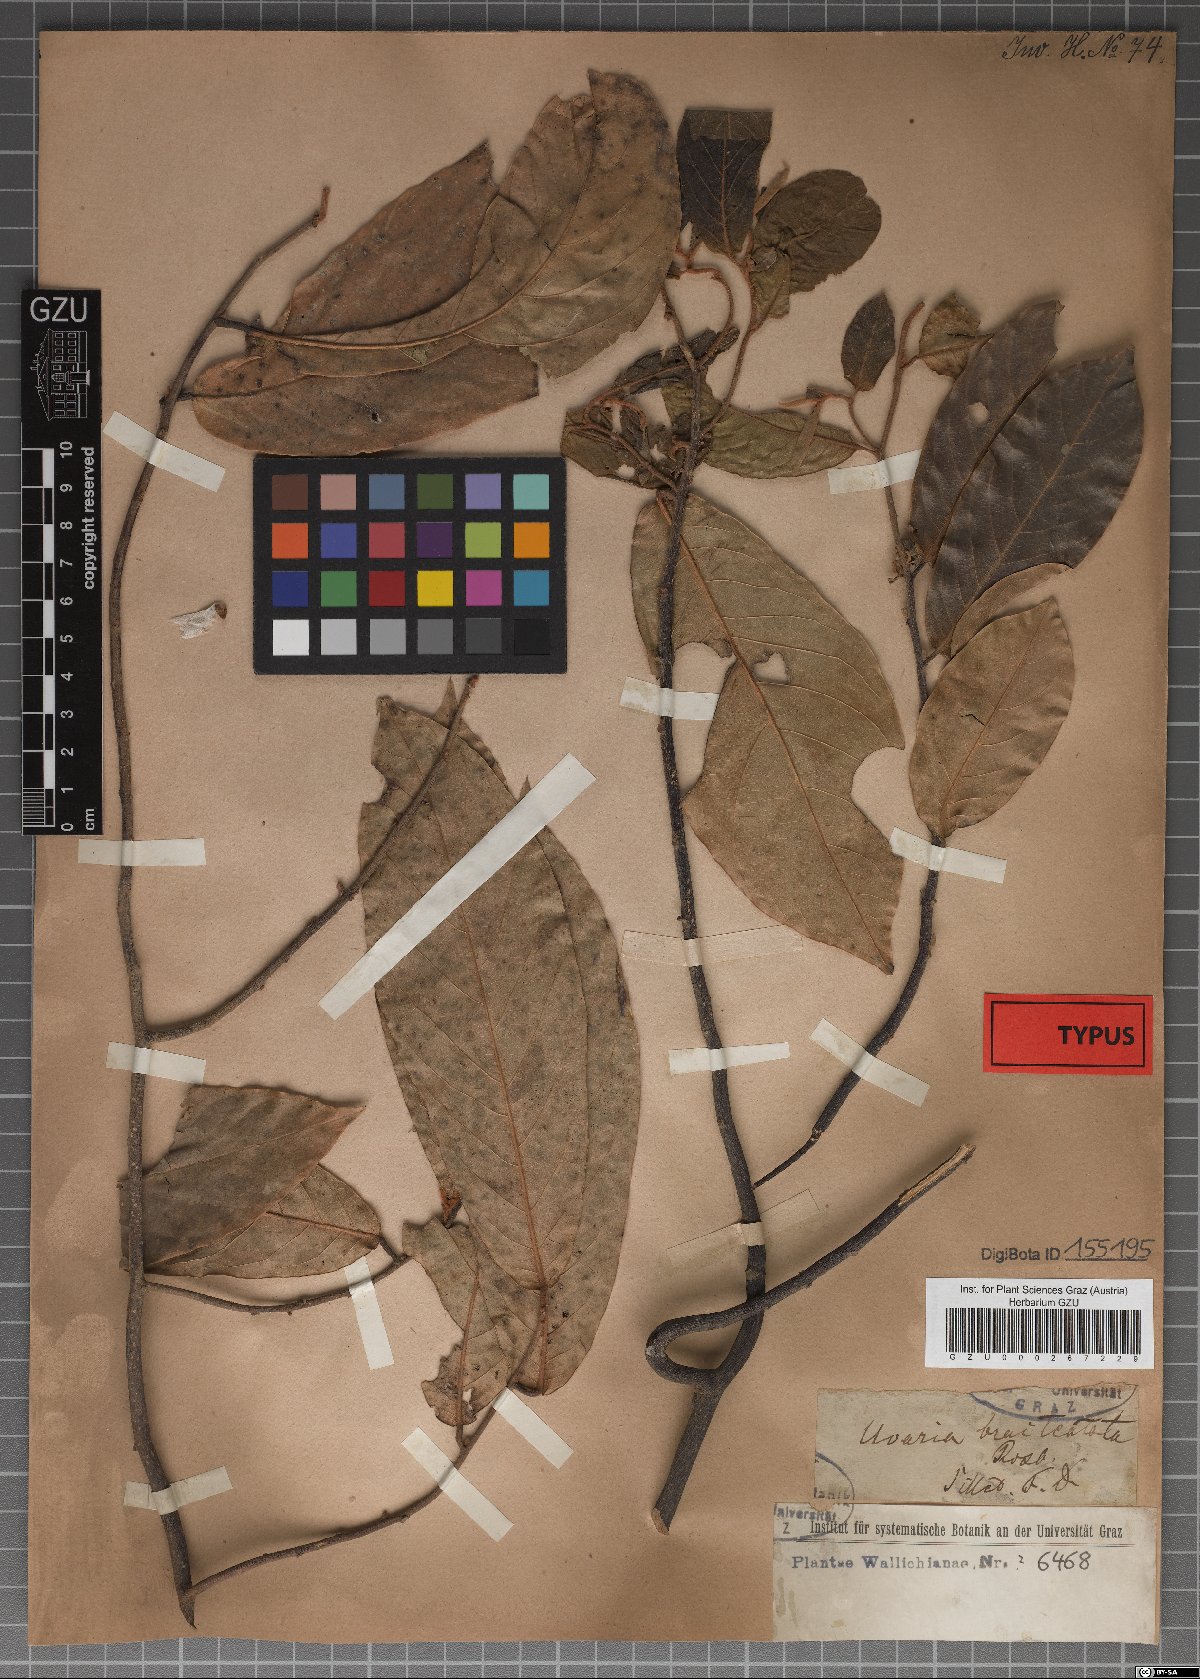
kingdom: Plantae
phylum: Tracheophyta
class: Magnoliopsida
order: Magnoliales
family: Annonaceae
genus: Uvaria
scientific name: Uvaria argentea
